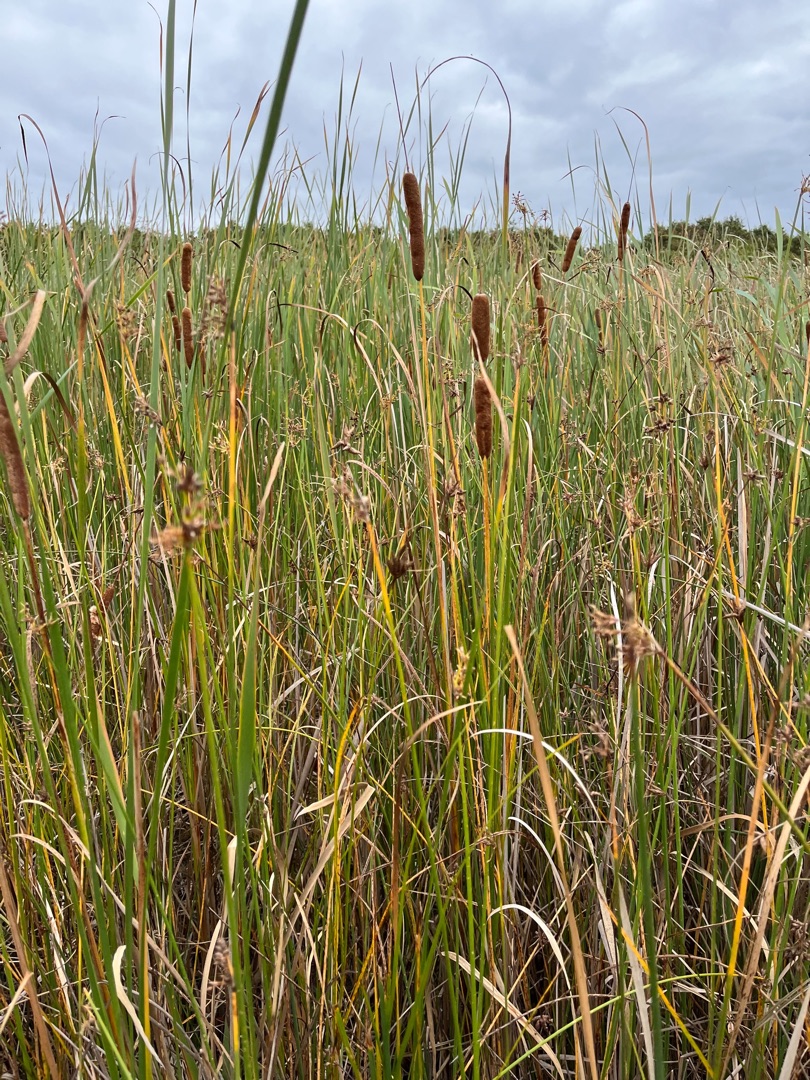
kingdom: Plantae
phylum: Tracheophyta
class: Liliopsida
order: Poales
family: Cyperaceae
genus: Schoenoplectus
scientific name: Schoenoplectus lacustris
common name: Sø-kogleaks
